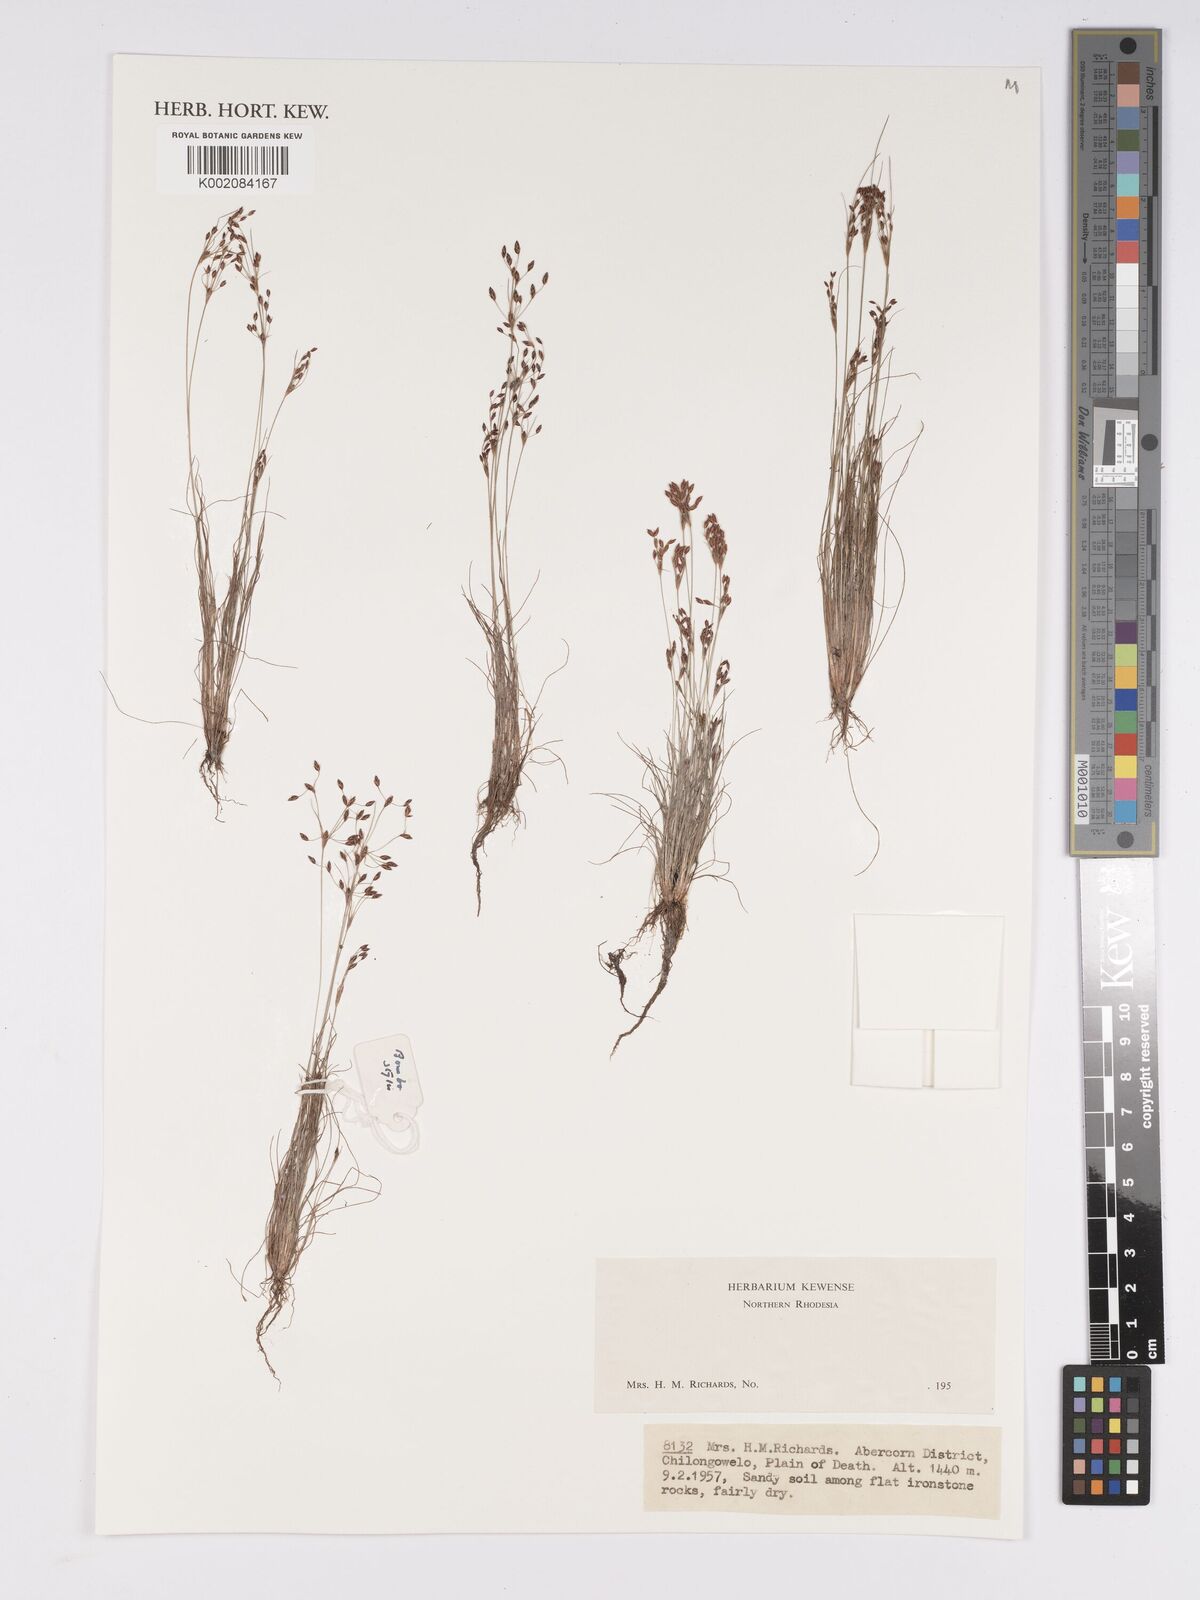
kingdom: Plantae
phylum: Tracheophyta
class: Liliopsida
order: Poales
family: Cyperaceae
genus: Bulbostylis
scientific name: Bulbostylis
